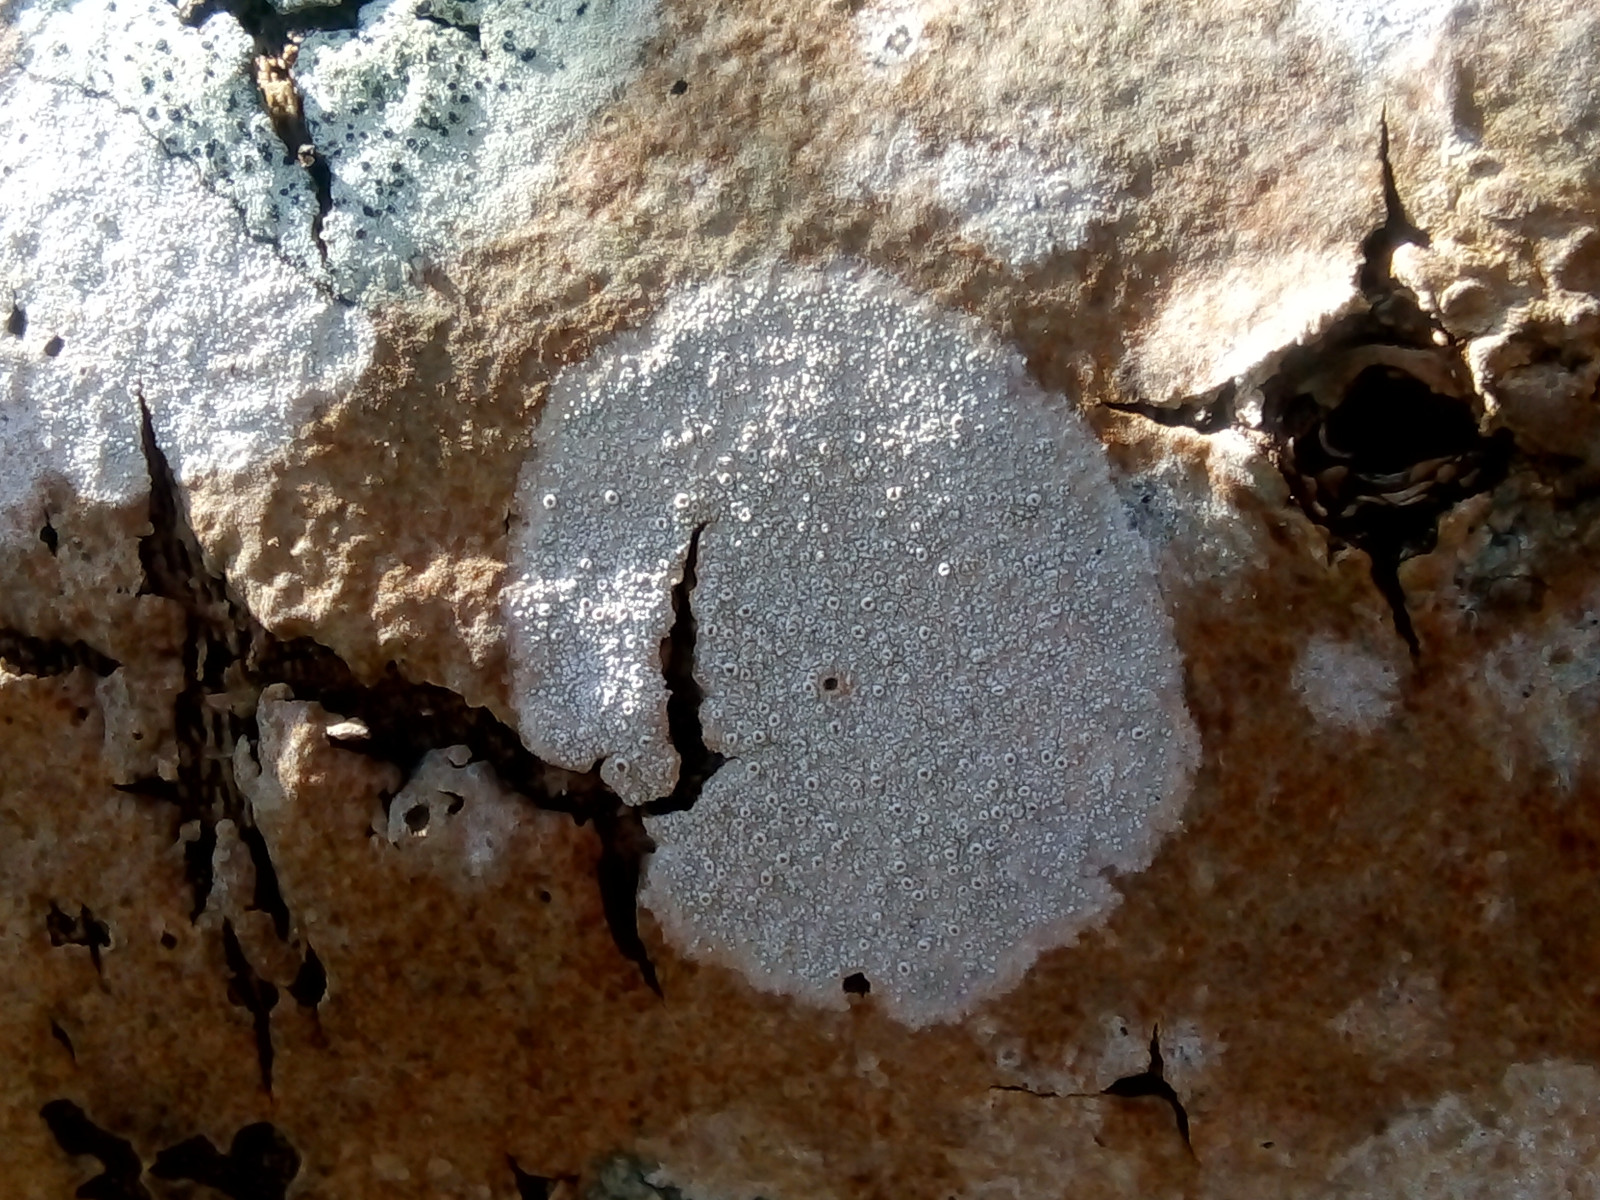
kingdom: Fungi
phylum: Ascomycota
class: Lecanoromycetes
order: Lecanorales
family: Lecanoraceae
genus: Lecanora
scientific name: Lecanora chlarotera
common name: brun kantskivelav
